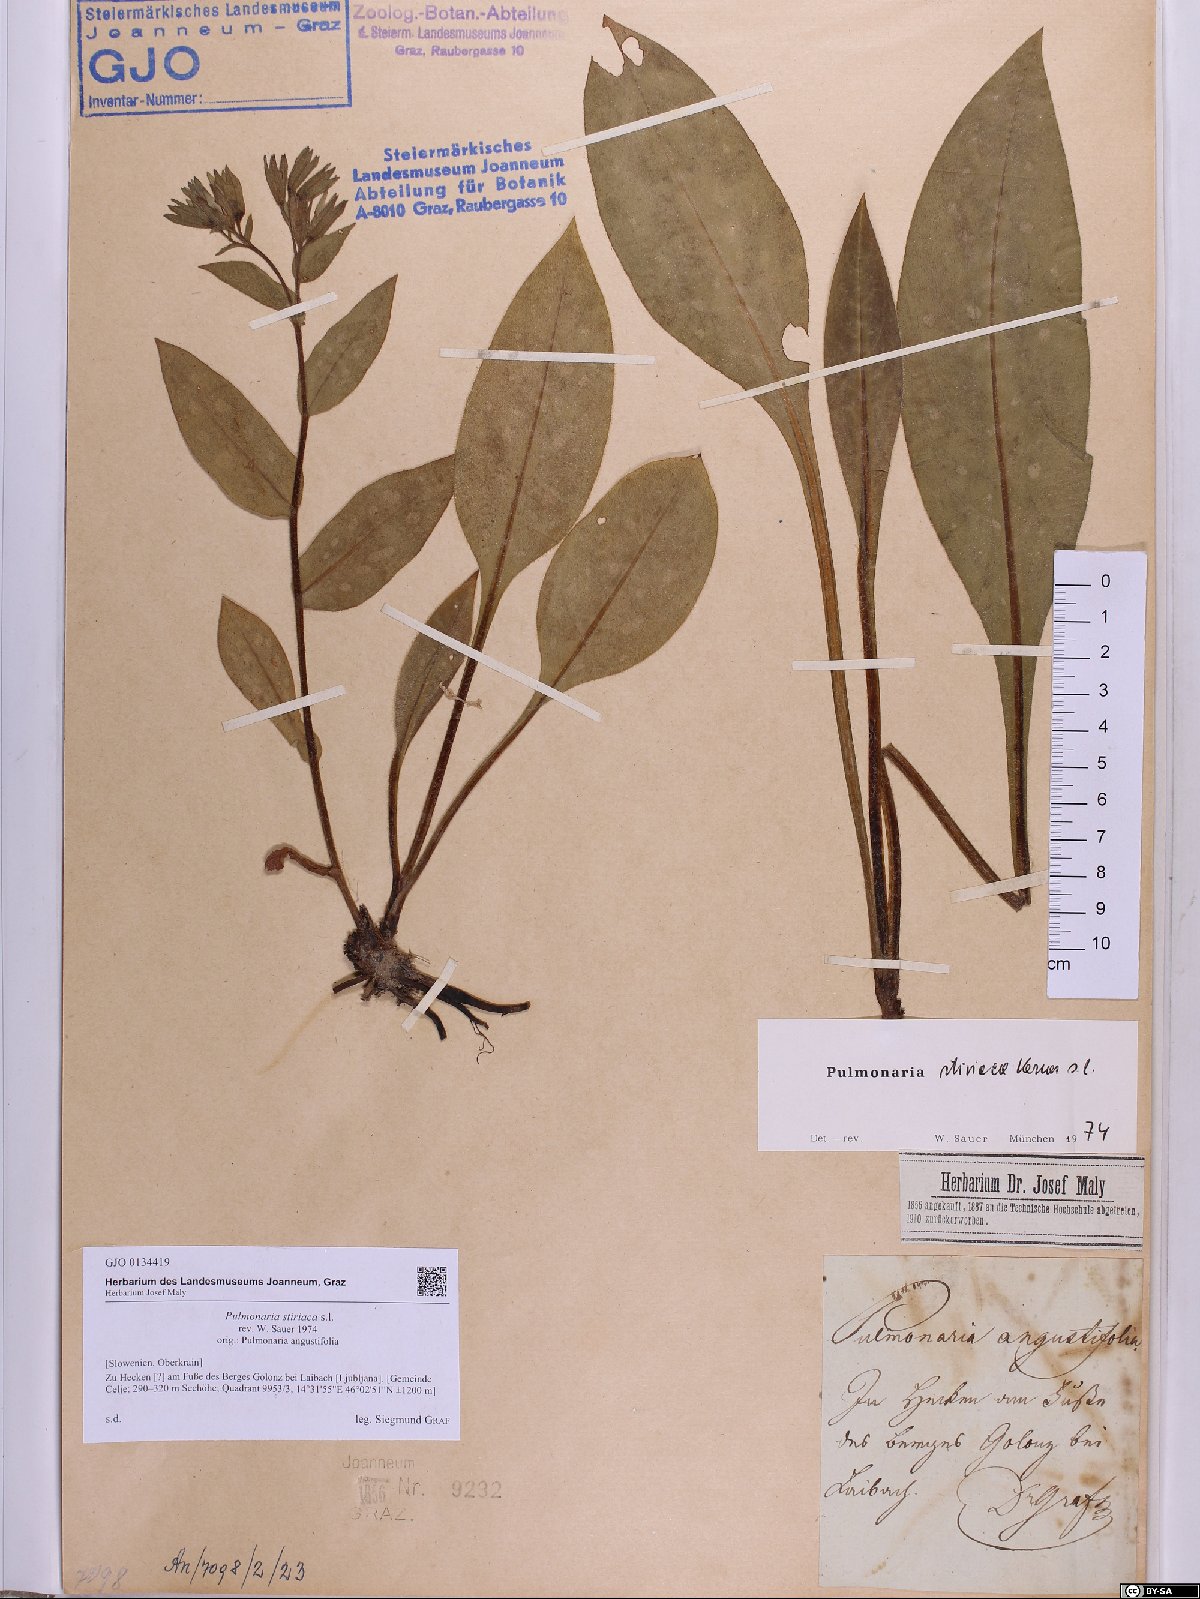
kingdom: Plantae
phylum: Tracheophyta
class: Magnoliopsida
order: Boraginales
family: Boraginaceae
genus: Pulmonaria
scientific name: Pulmonaria stiriaca
